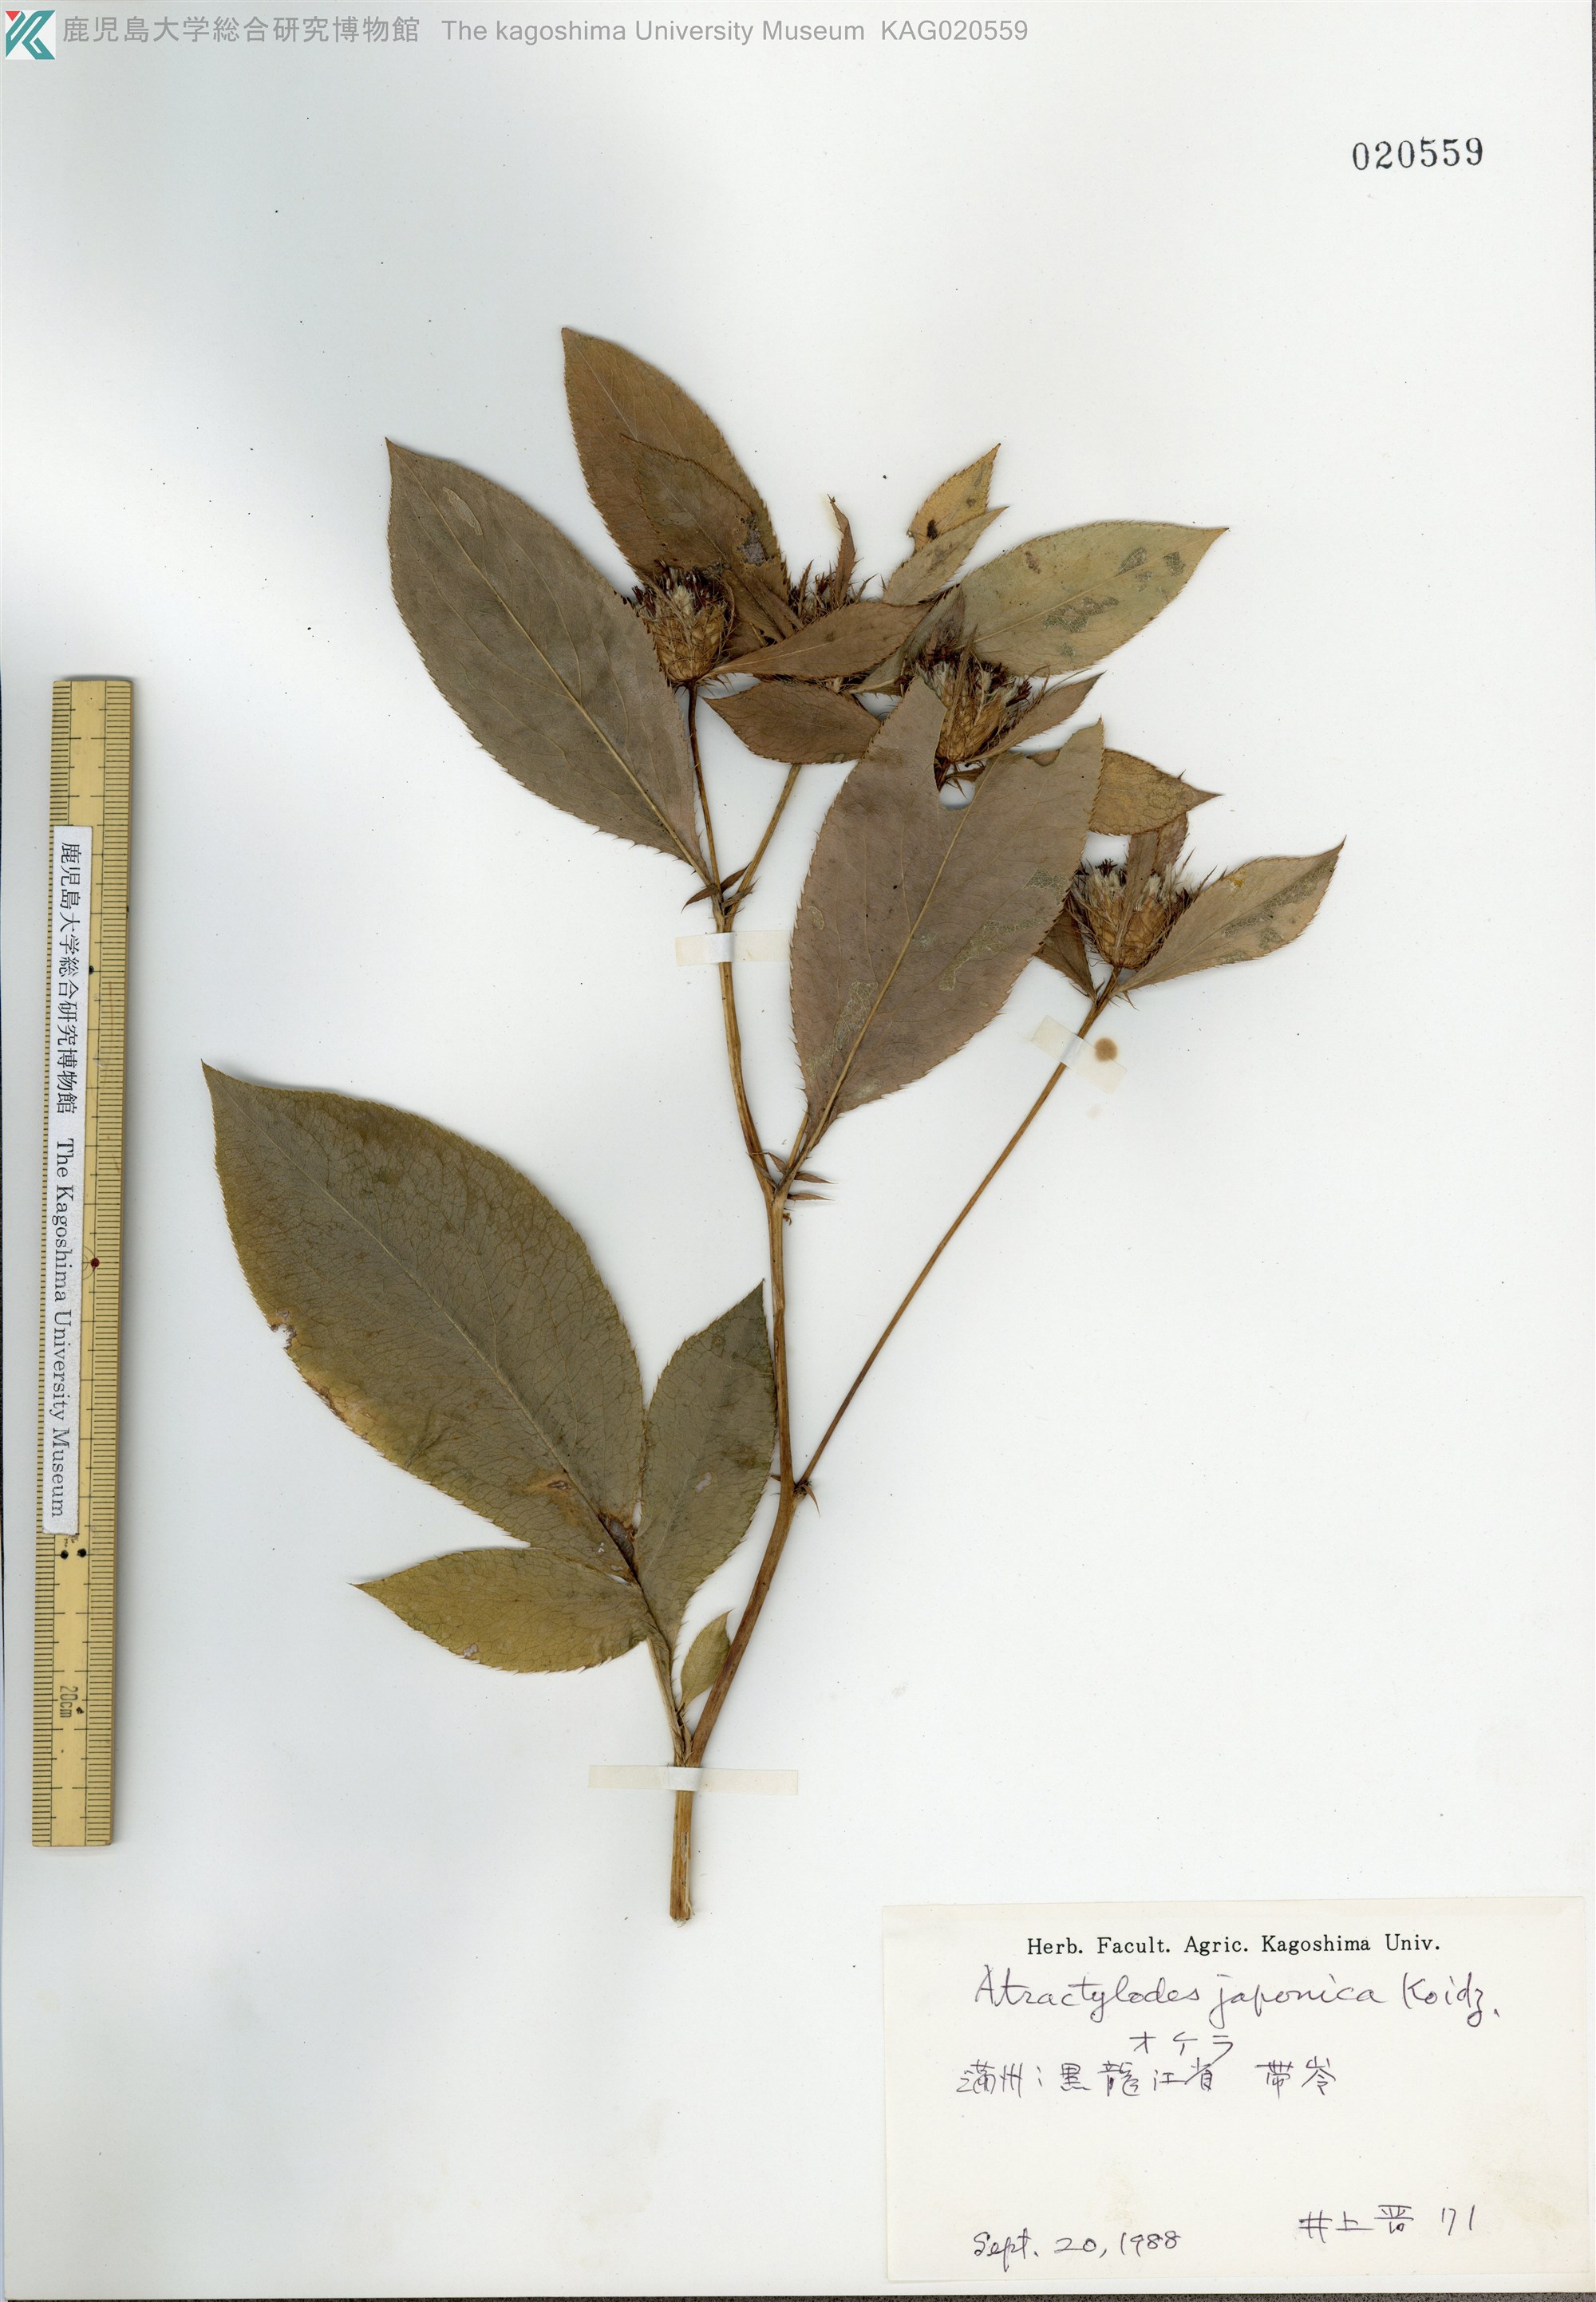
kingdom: Plantae
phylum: Tracheophyta
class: Magnoliopsida
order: Asterales
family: Asteraceae
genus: Atractylodes
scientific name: Atractylodes lancea
